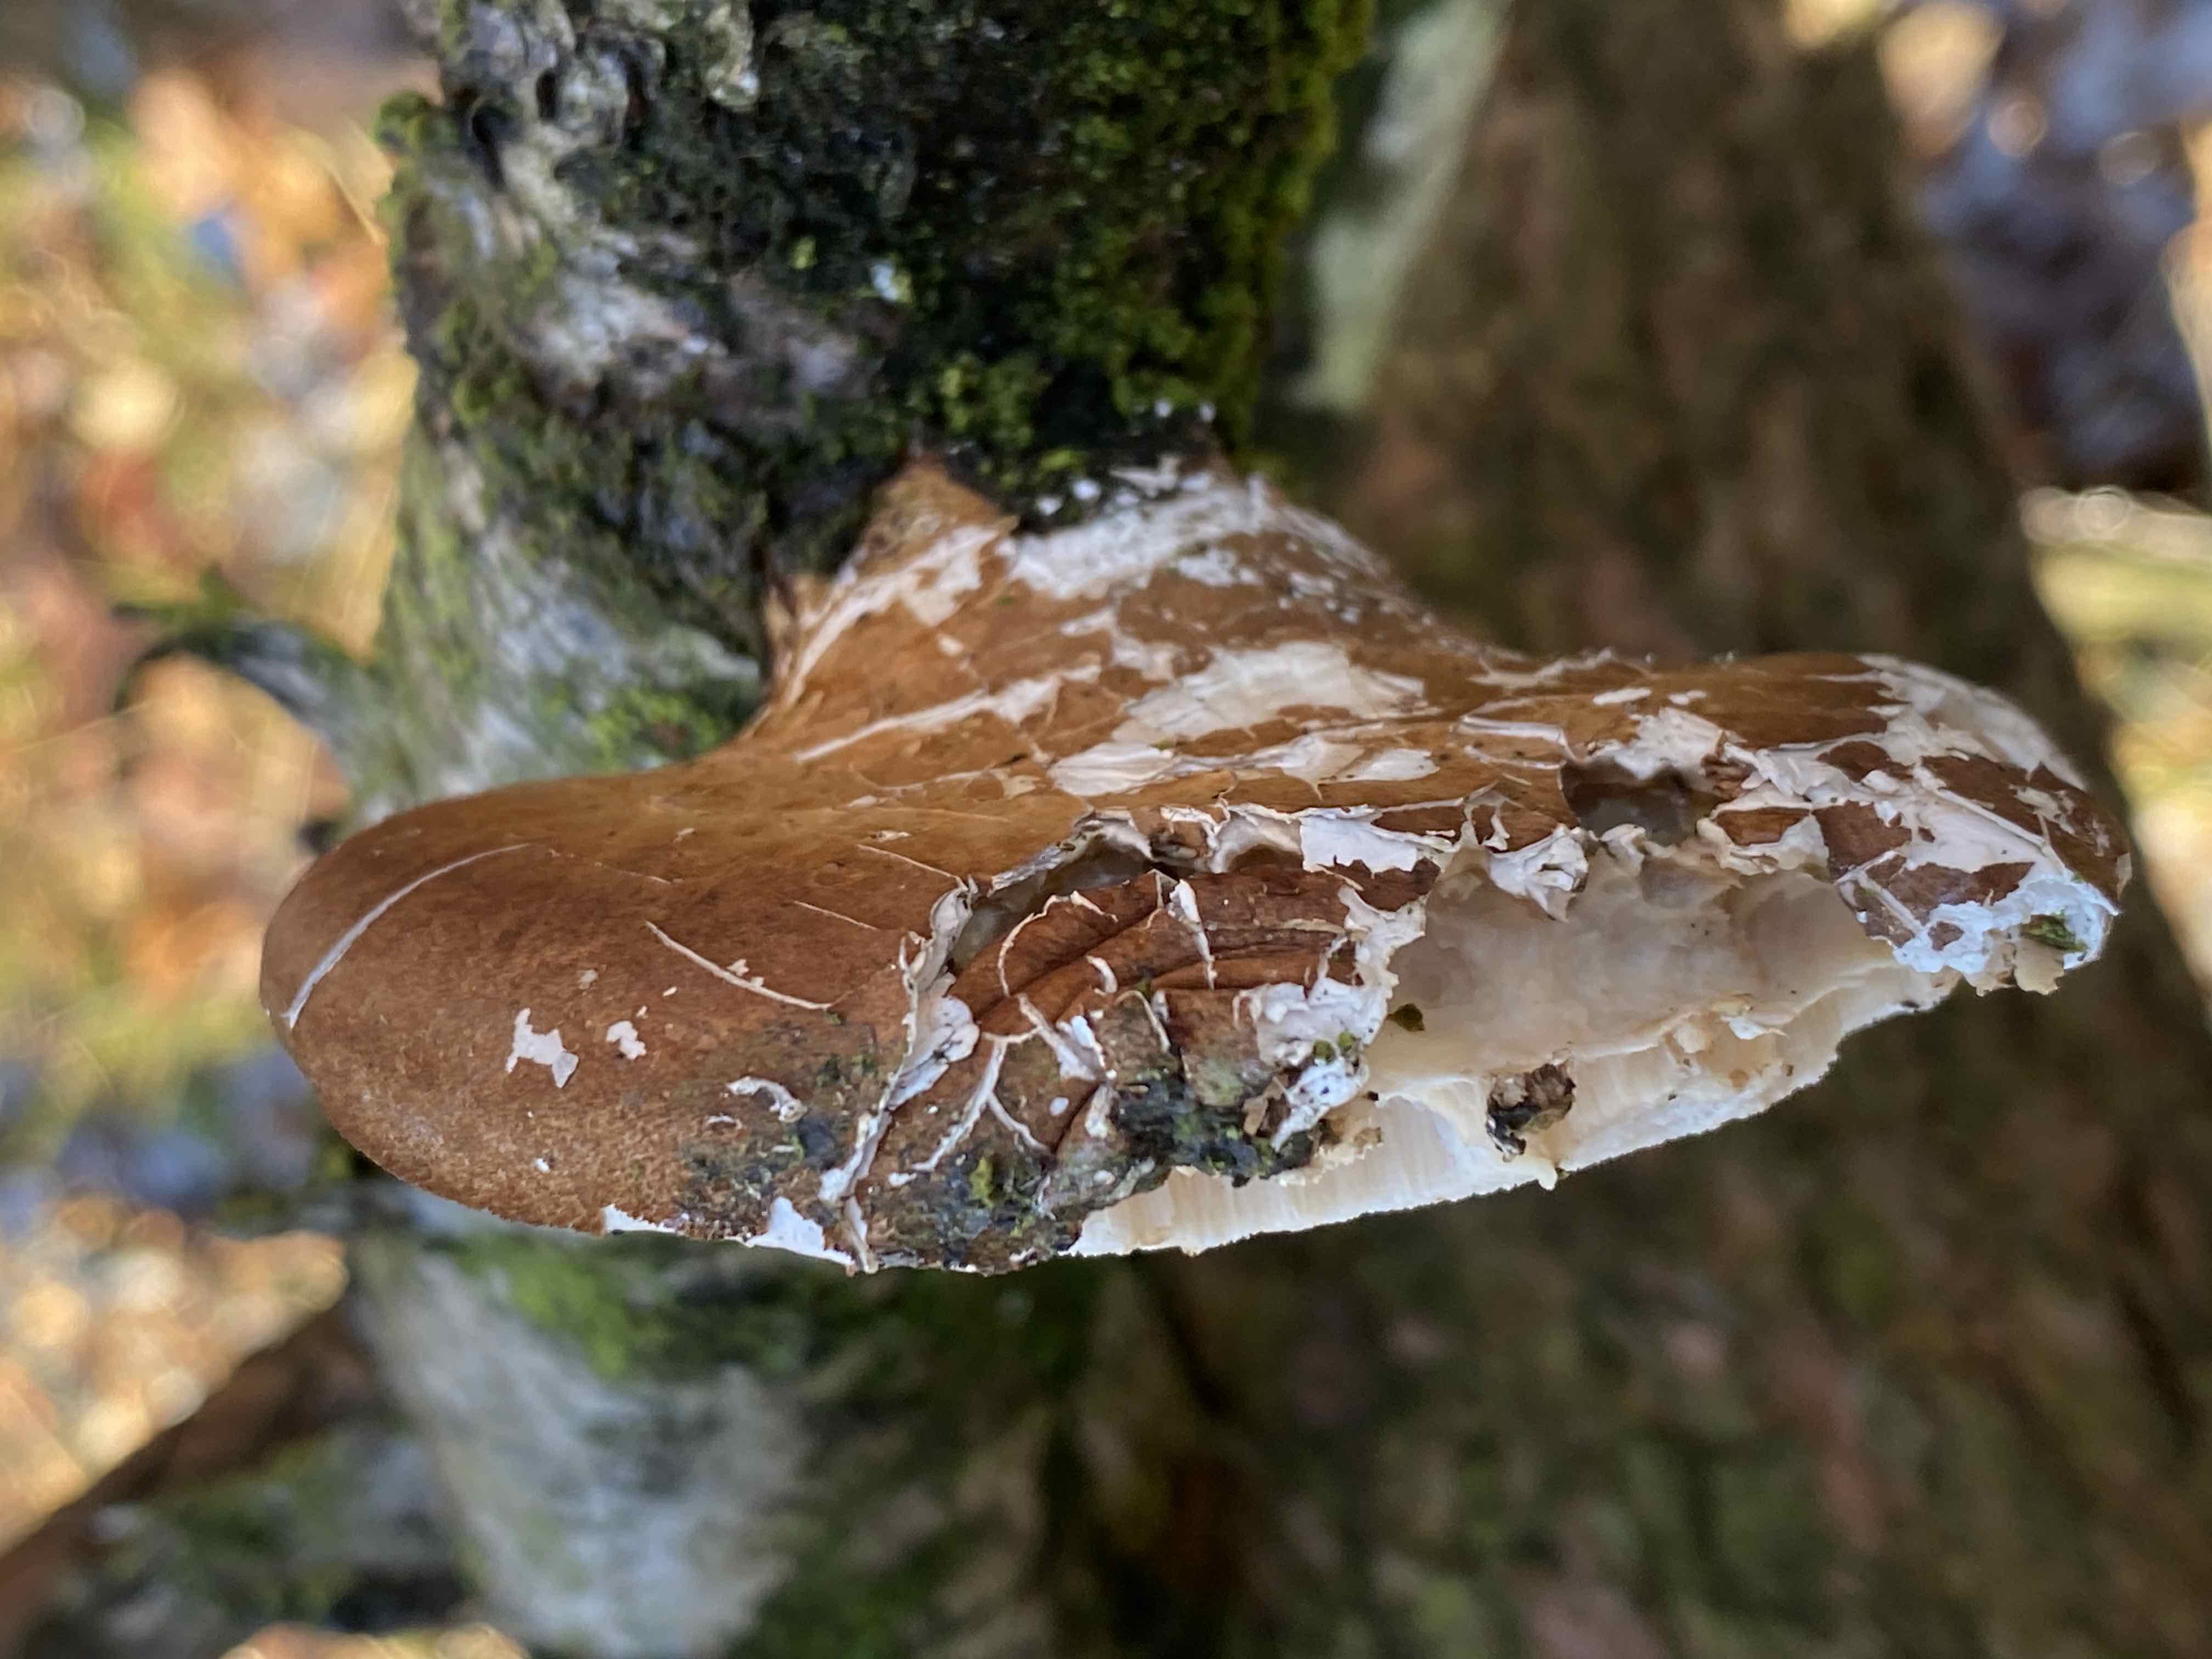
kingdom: Fungi
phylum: Basidiomycota
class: Agaricomycetes
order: Polyporales
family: Fomitopsidaceae
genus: Fomitopsis
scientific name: Fomitopsis betulina
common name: birkeporesvamp
